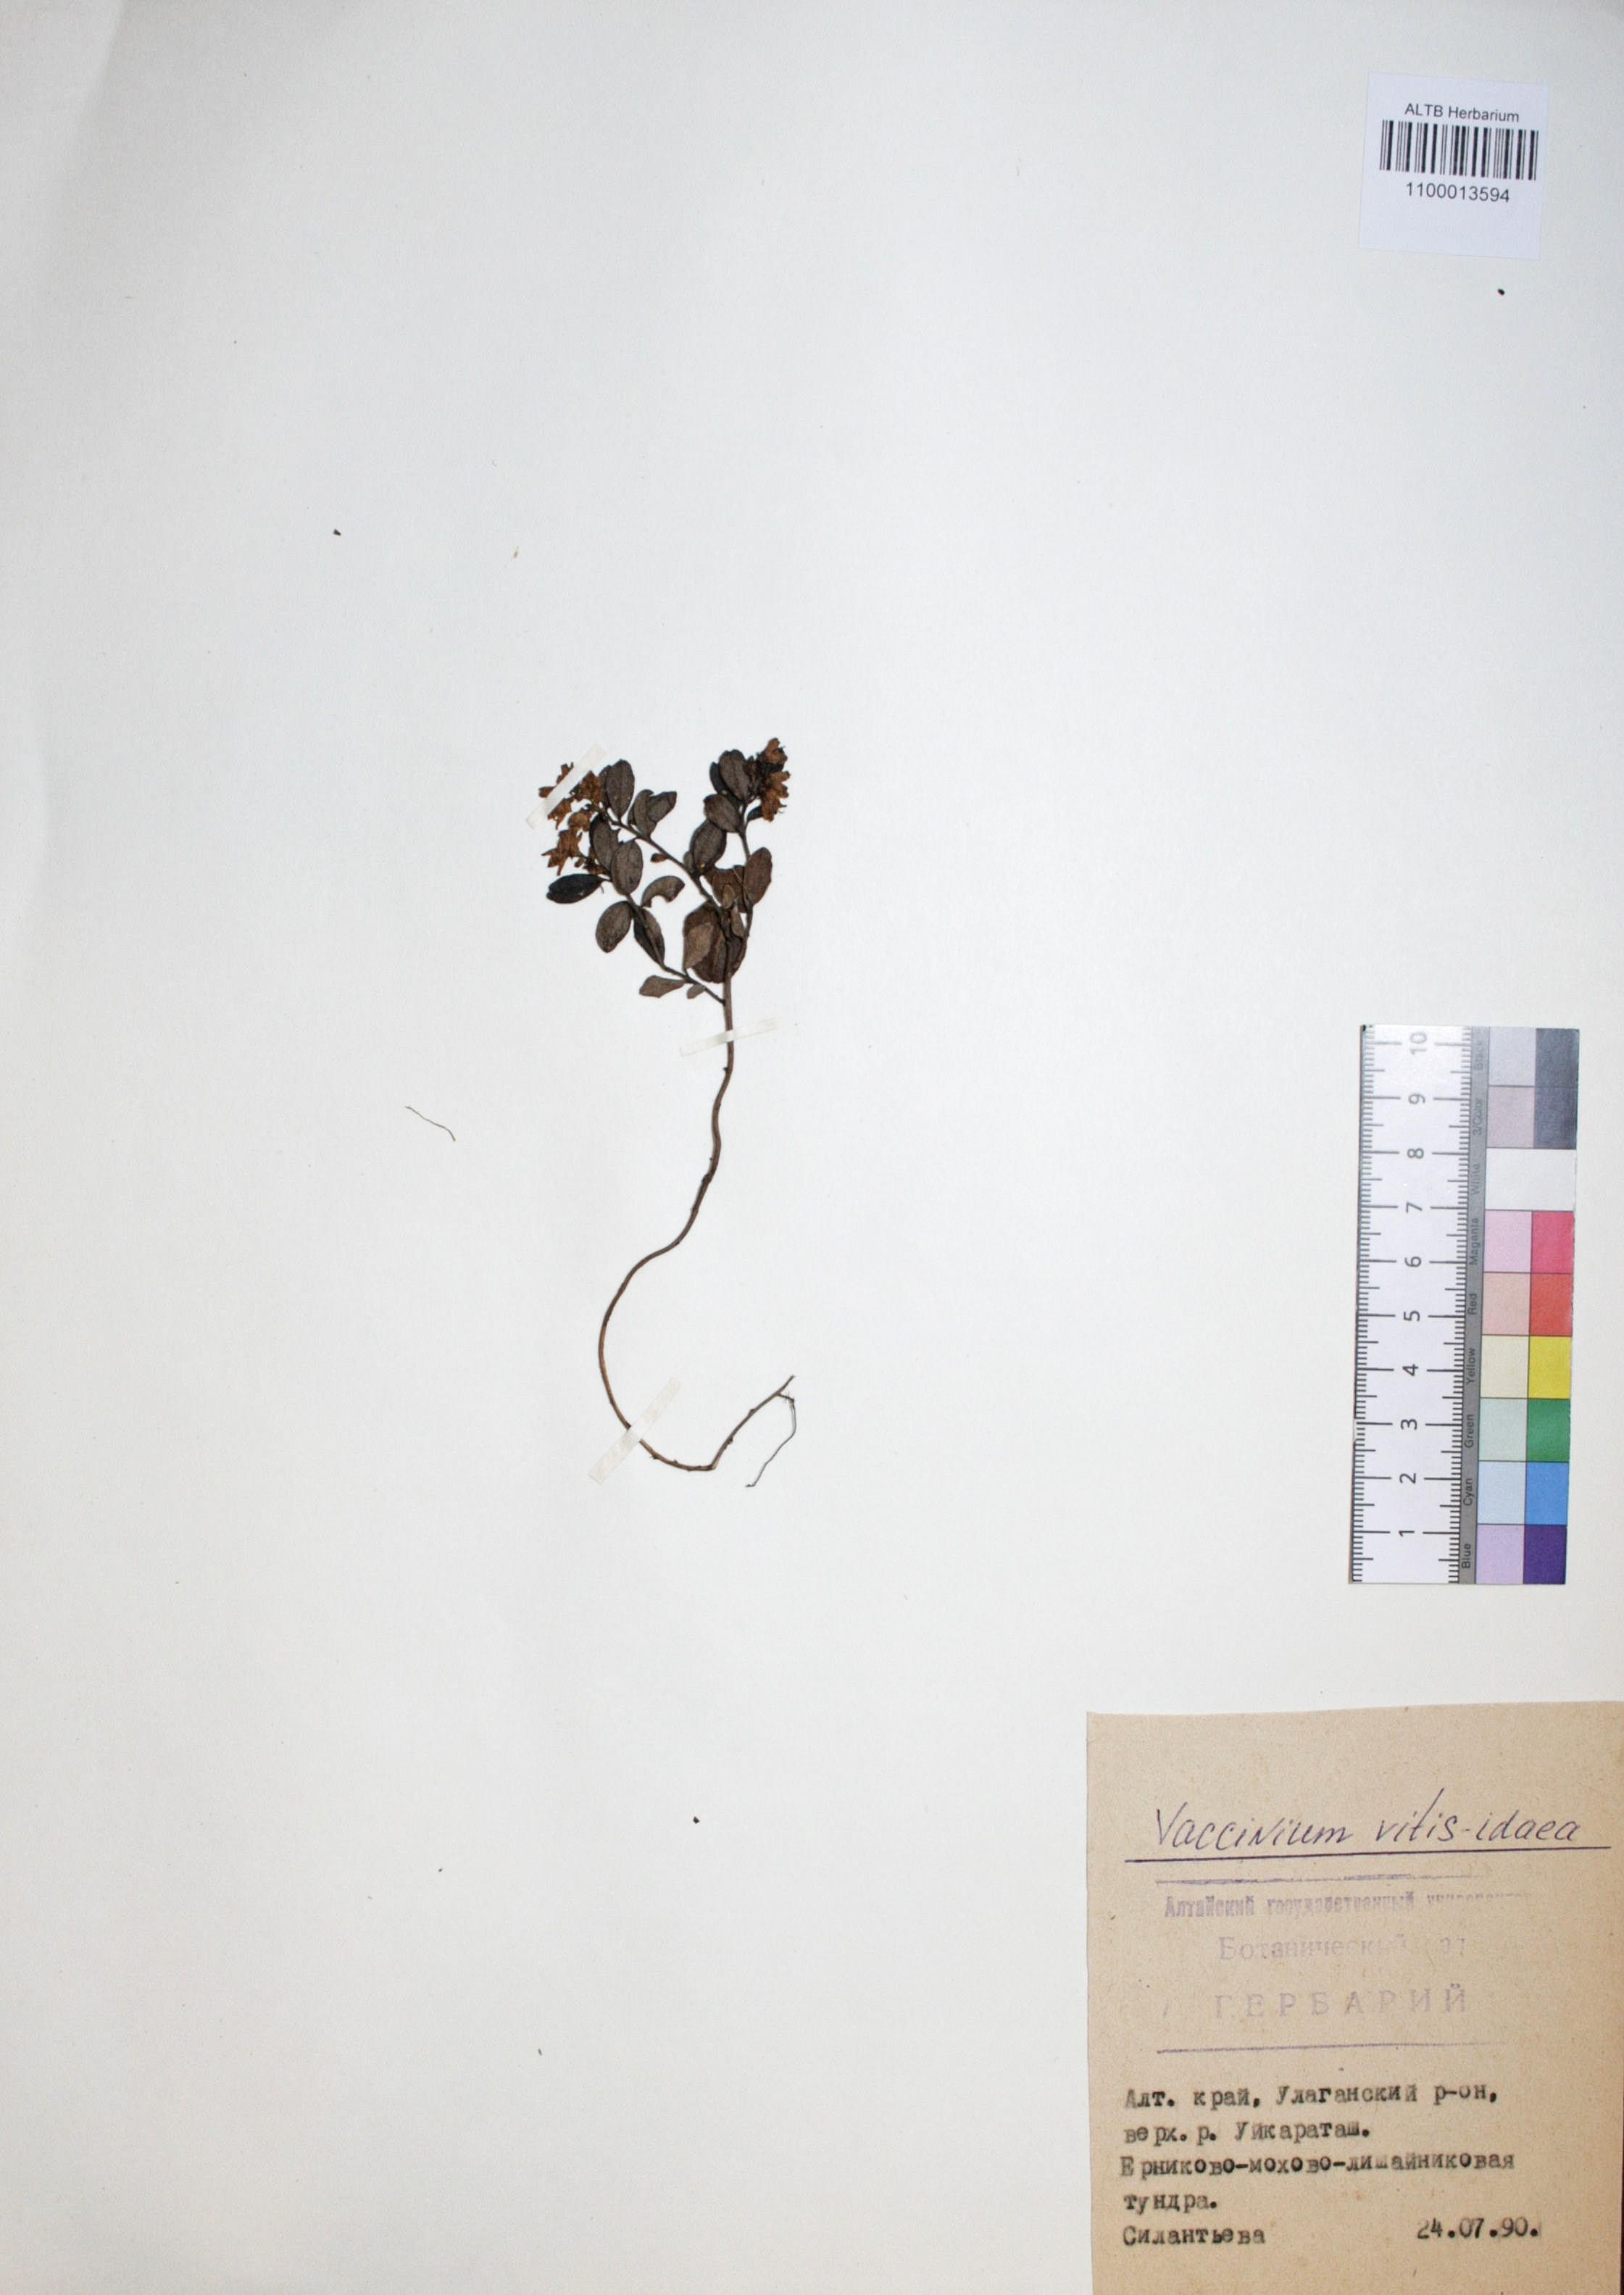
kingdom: Plantae
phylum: Tracheophyta
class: Magnoliopsida
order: Ericales
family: Ericaceae
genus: Vaccinium
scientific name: Vaccinium vitis-idaea
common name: Cowberry
